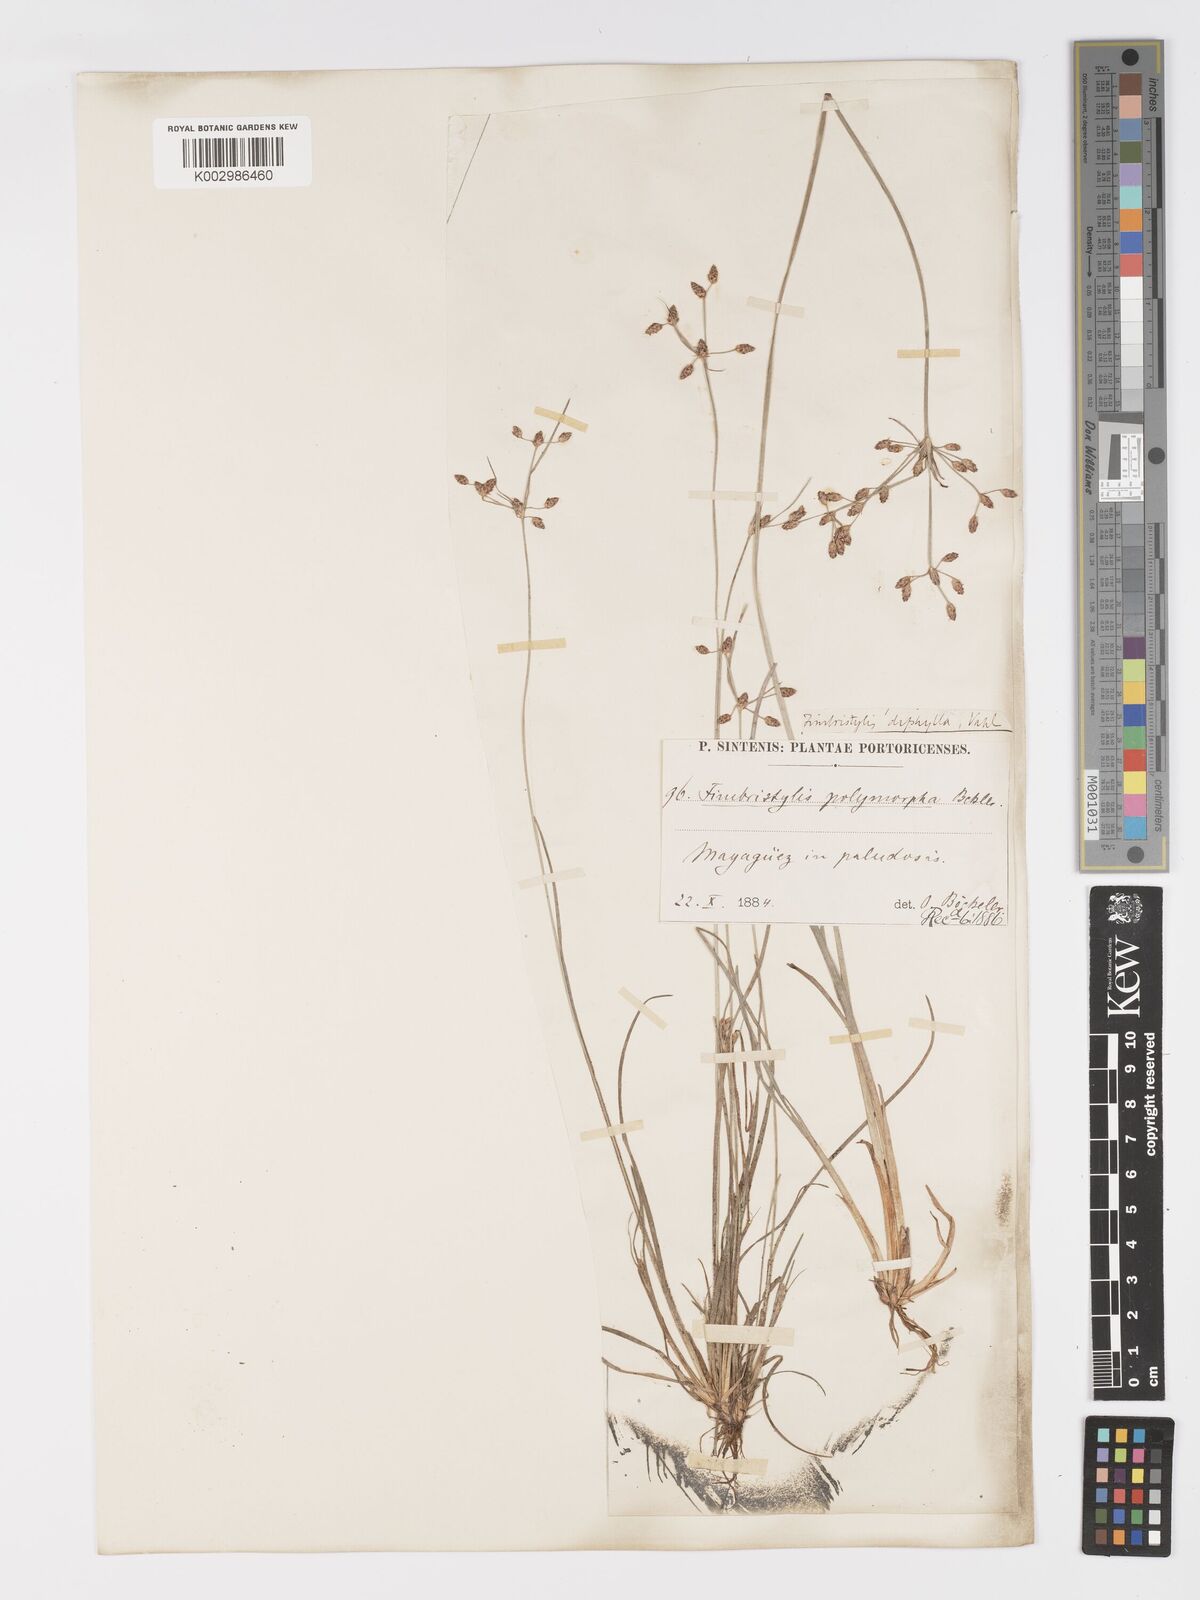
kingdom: Plantae
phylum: Tracheophyta
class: Liliopsida
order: Poales
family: Cyperaceae
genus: Fimbristylis
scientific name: Fimbristylis dichotoma
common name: Forked fimbry
